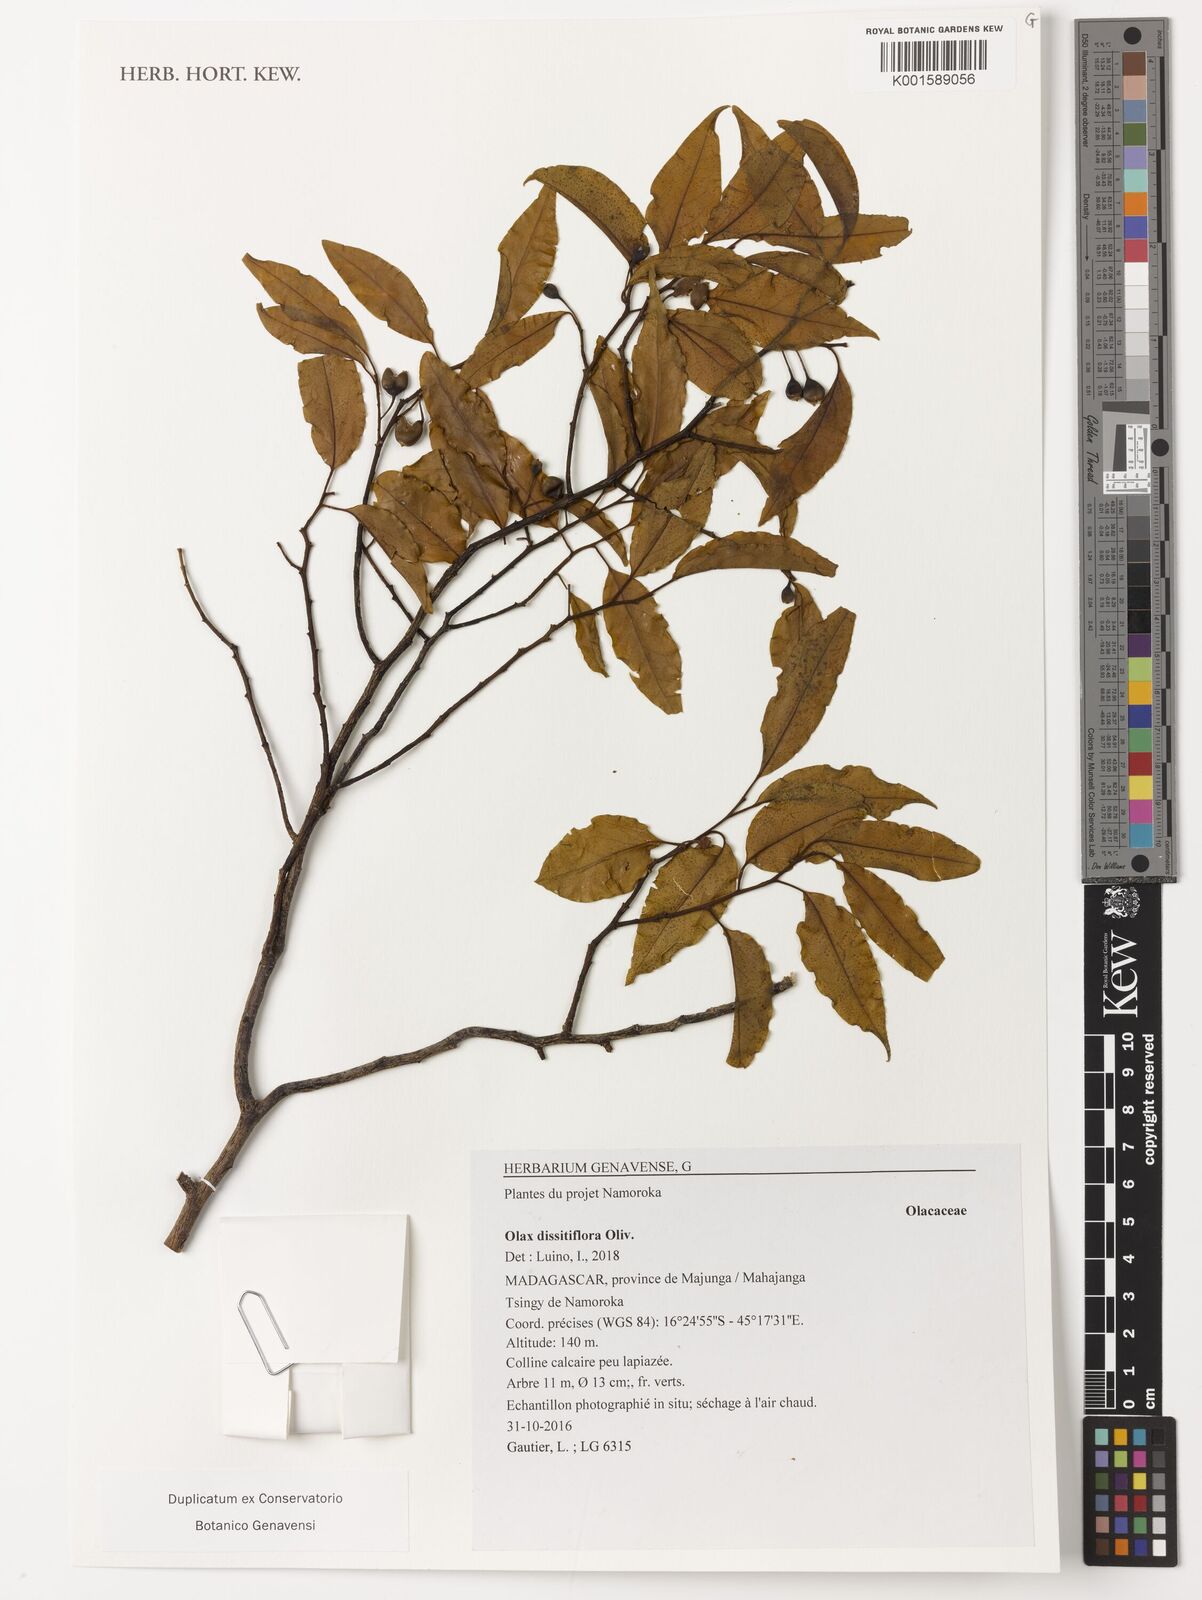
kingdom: Plantae
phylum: Tracheophyta
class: Magnoliopsida
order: Santalales
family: Olacaceae
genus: Olax
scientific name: Olax dissitiflora
